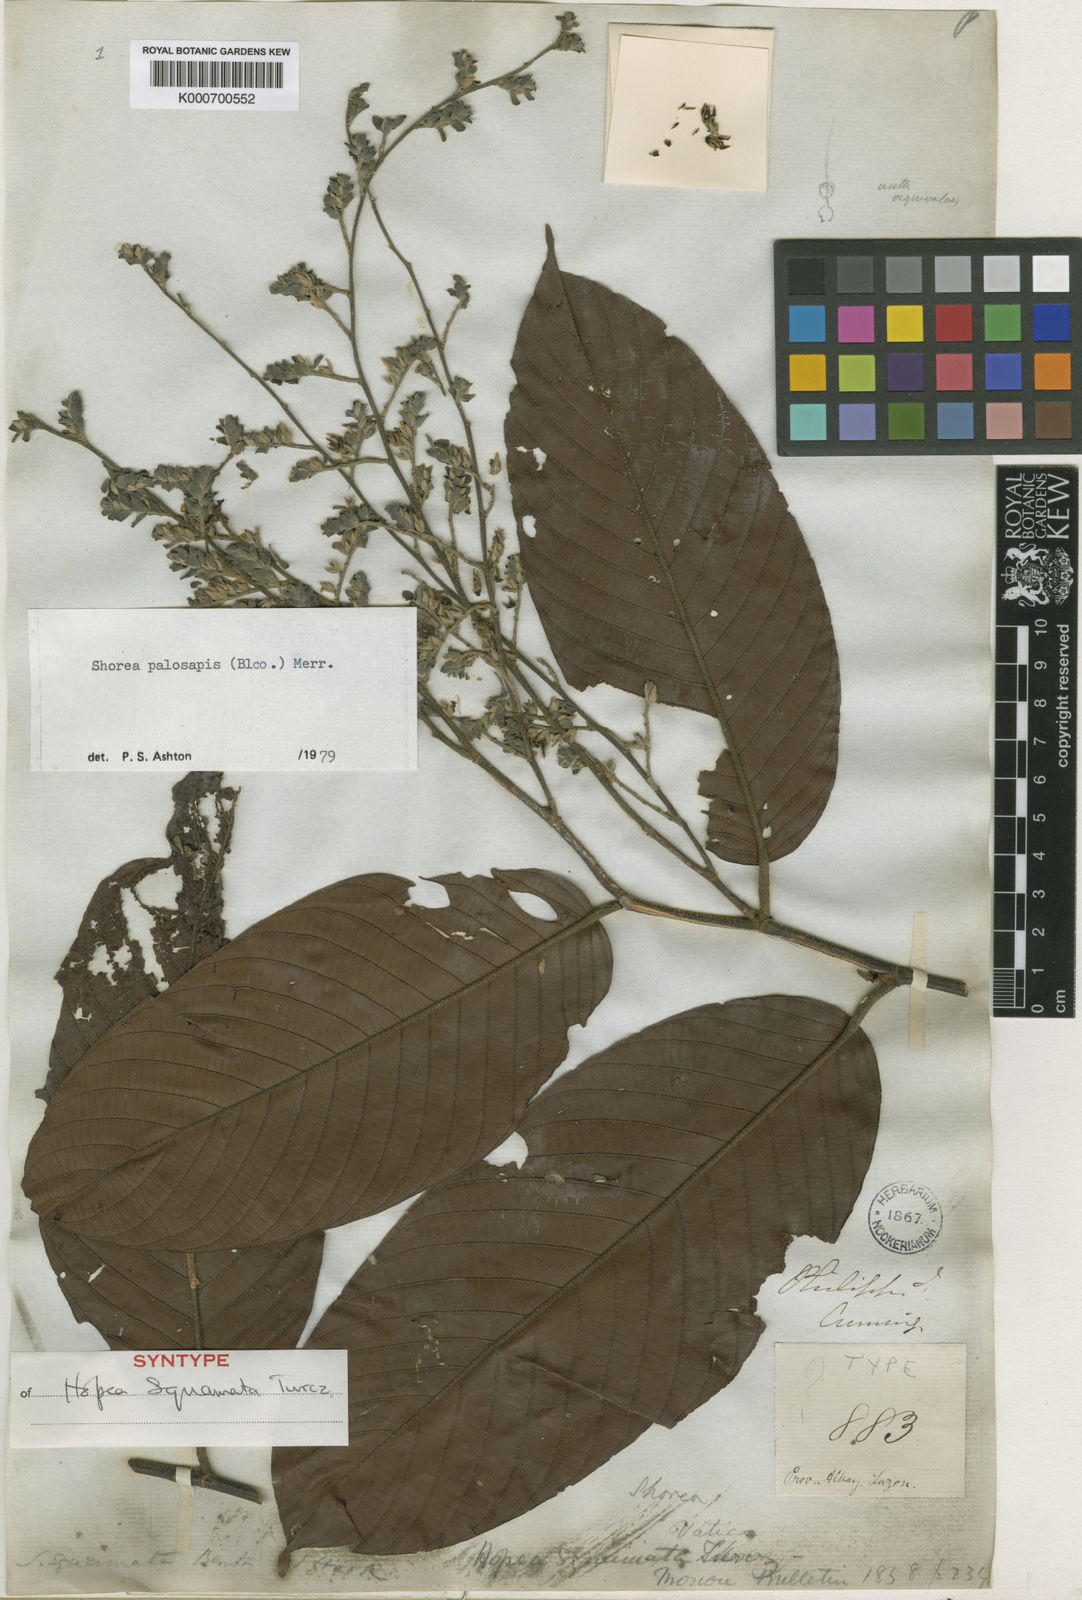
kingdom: Plantae
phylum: Tracheophyta
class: Magnoliopsida
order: Malvales
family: Dipterocarpaceae
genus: Shorea
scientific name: Shorea palosapis
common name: Philippine mahogany
